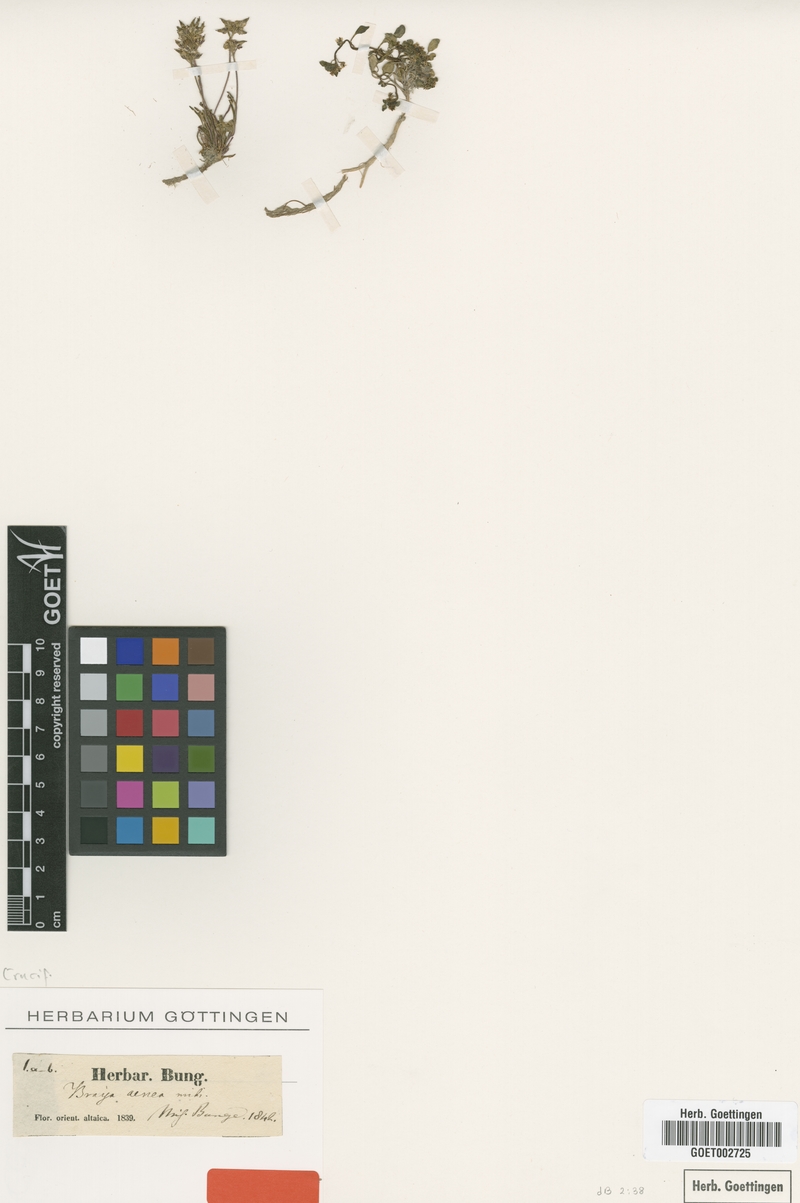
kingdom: Plantae
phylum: Tracheophyta
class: Magnoliopsida
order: Brassicales
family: Brassicaceae
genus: Braya
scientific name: Braya rosea
